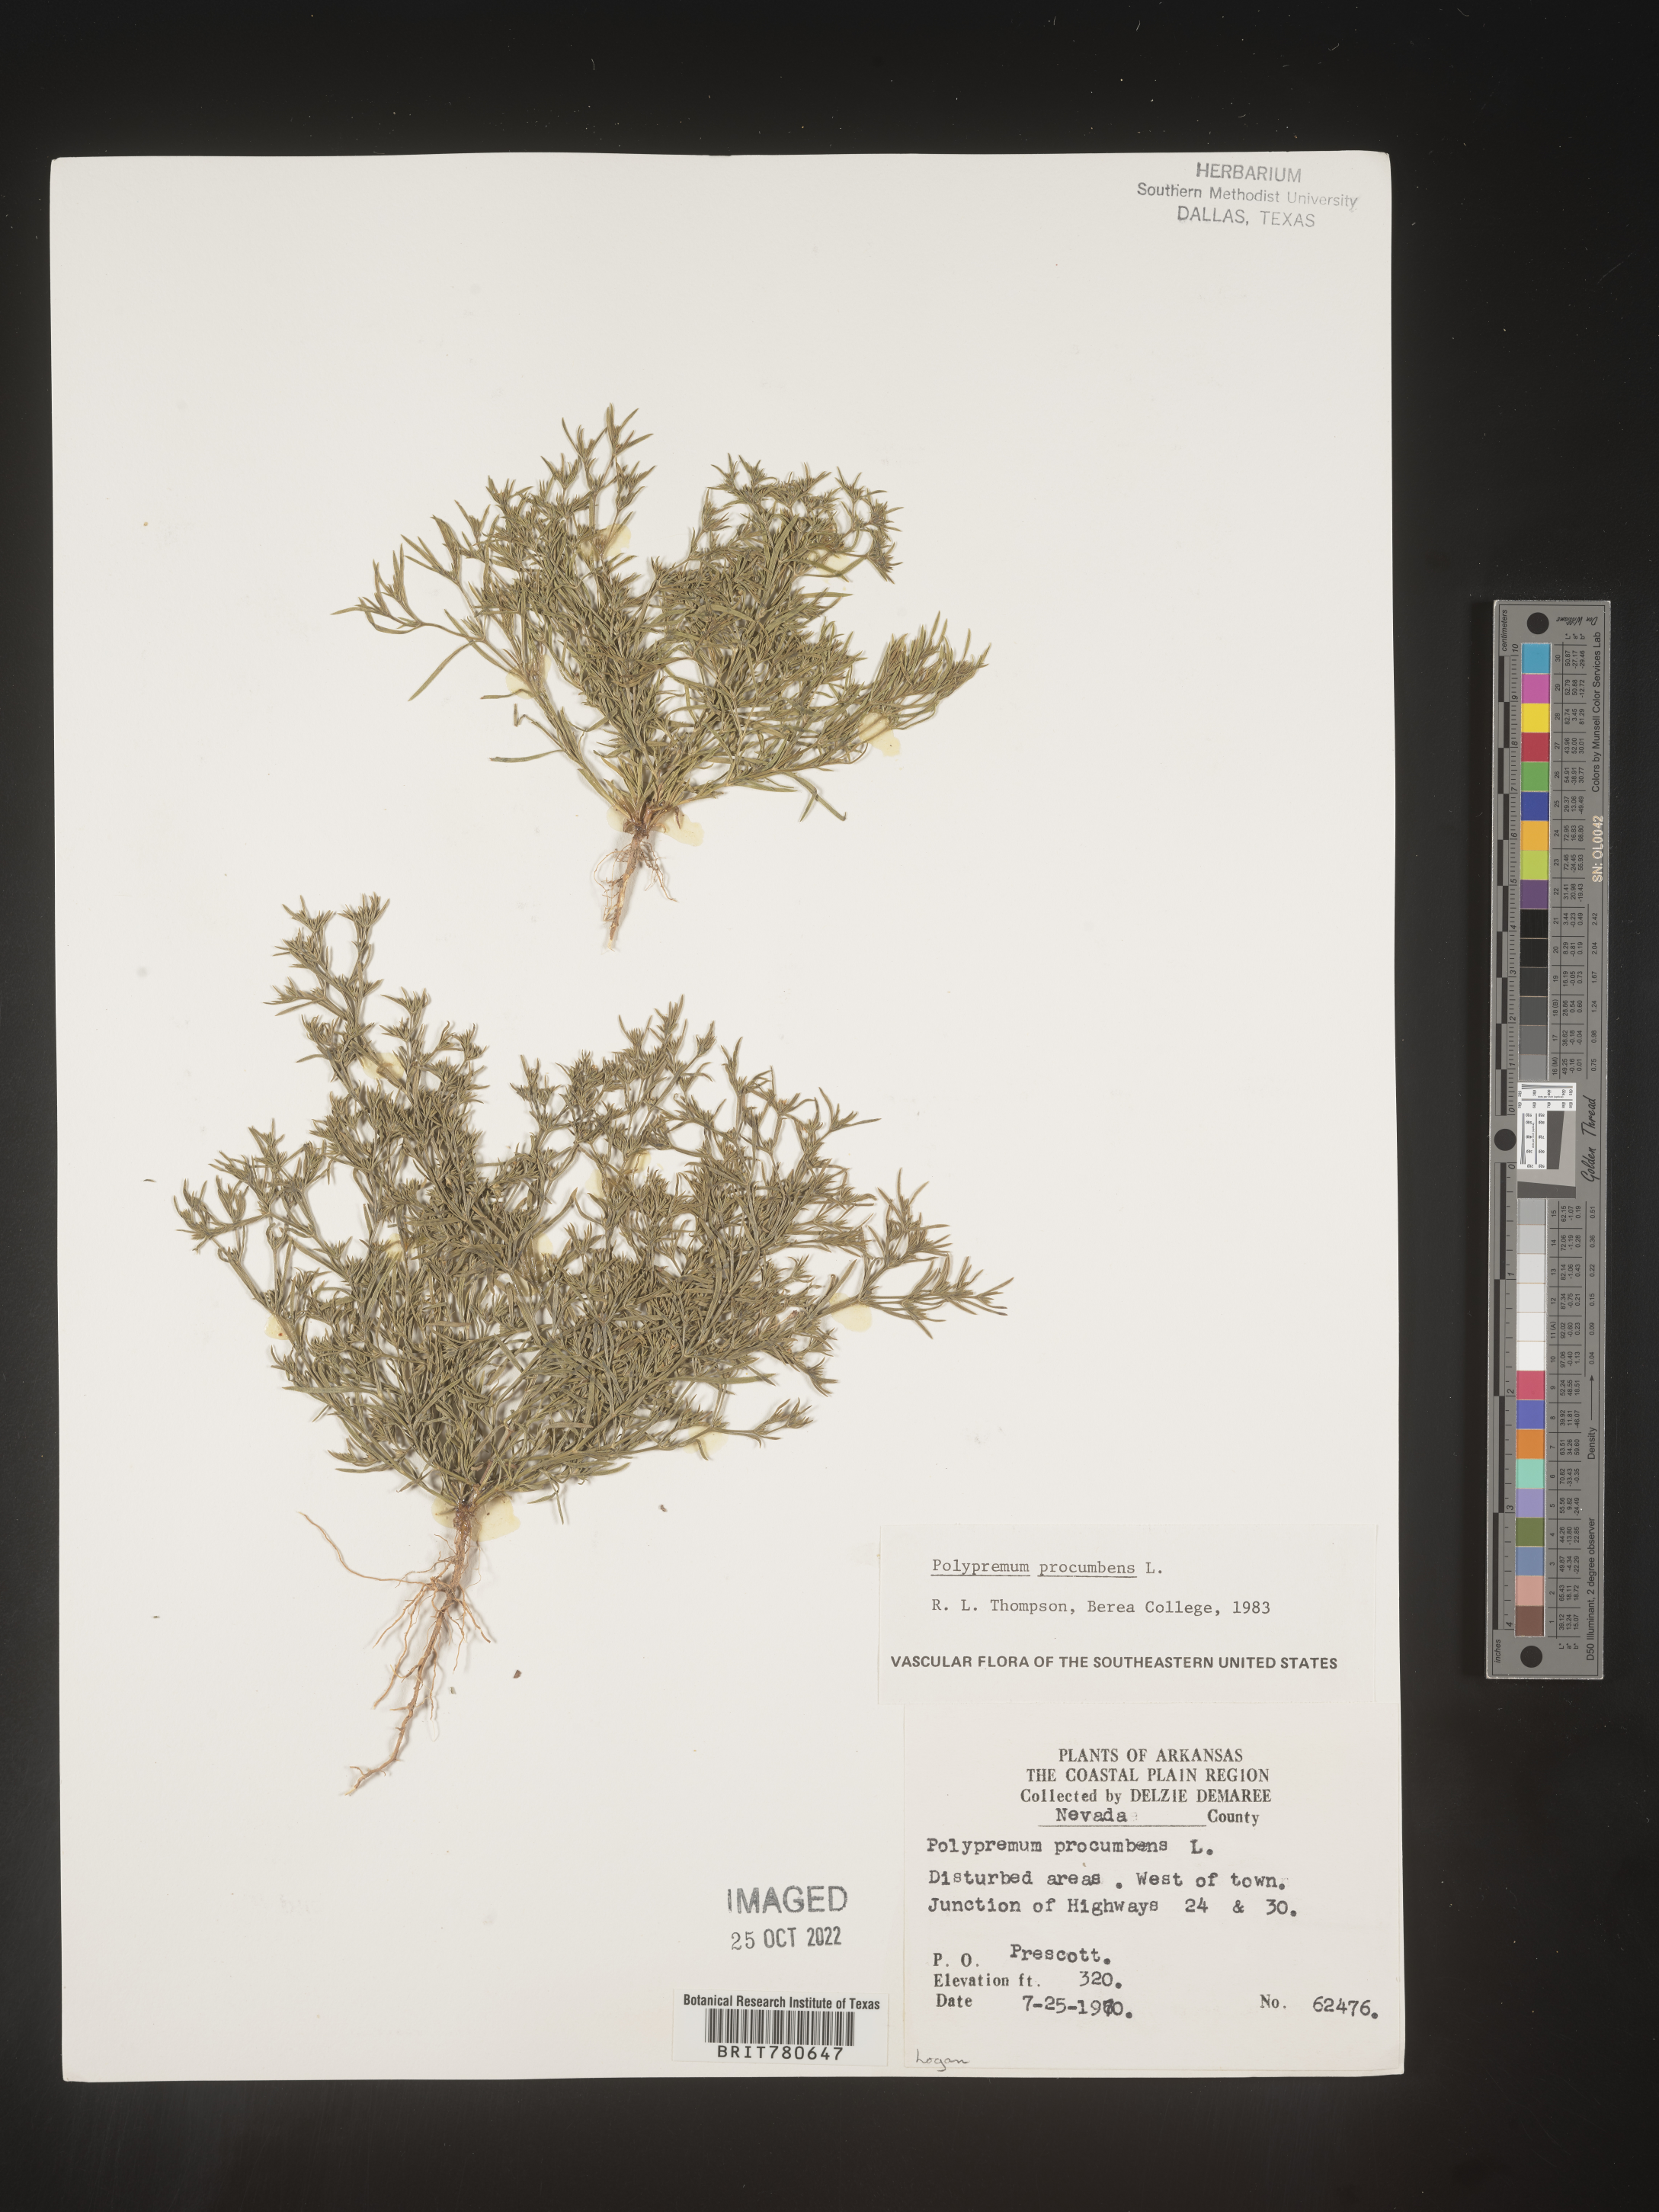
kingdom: Plantae
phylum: Tracheophyta
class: Magnoliopsida
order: Lamiales
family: Tetrachondraceae
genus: Polypremum
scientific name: Polypremum procumbens
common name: Juniper-leaf
